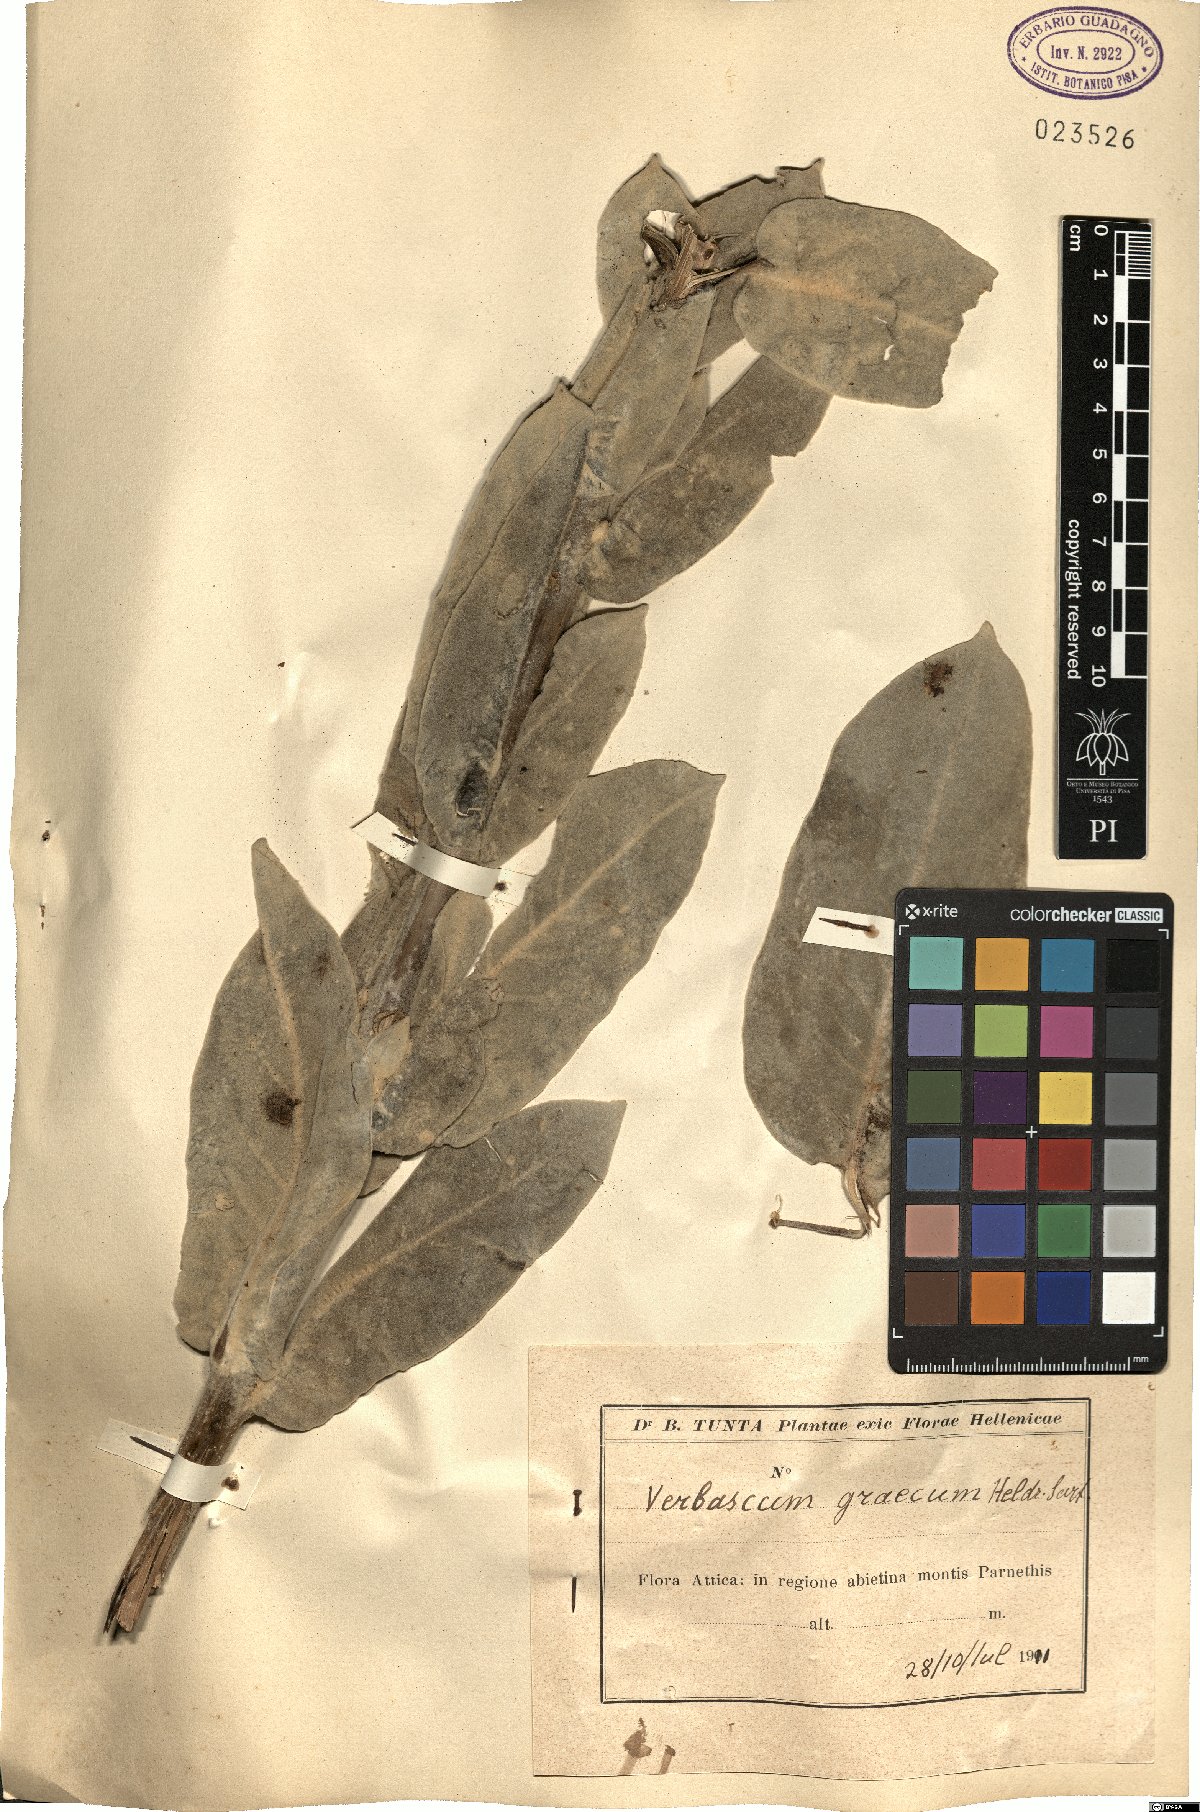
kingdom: Plantae
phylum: Tracheophyta
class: Magnoliopsida
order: Lamiales
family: Scrophulariaceae
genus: Verbascum
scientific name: Verbascum graecum
